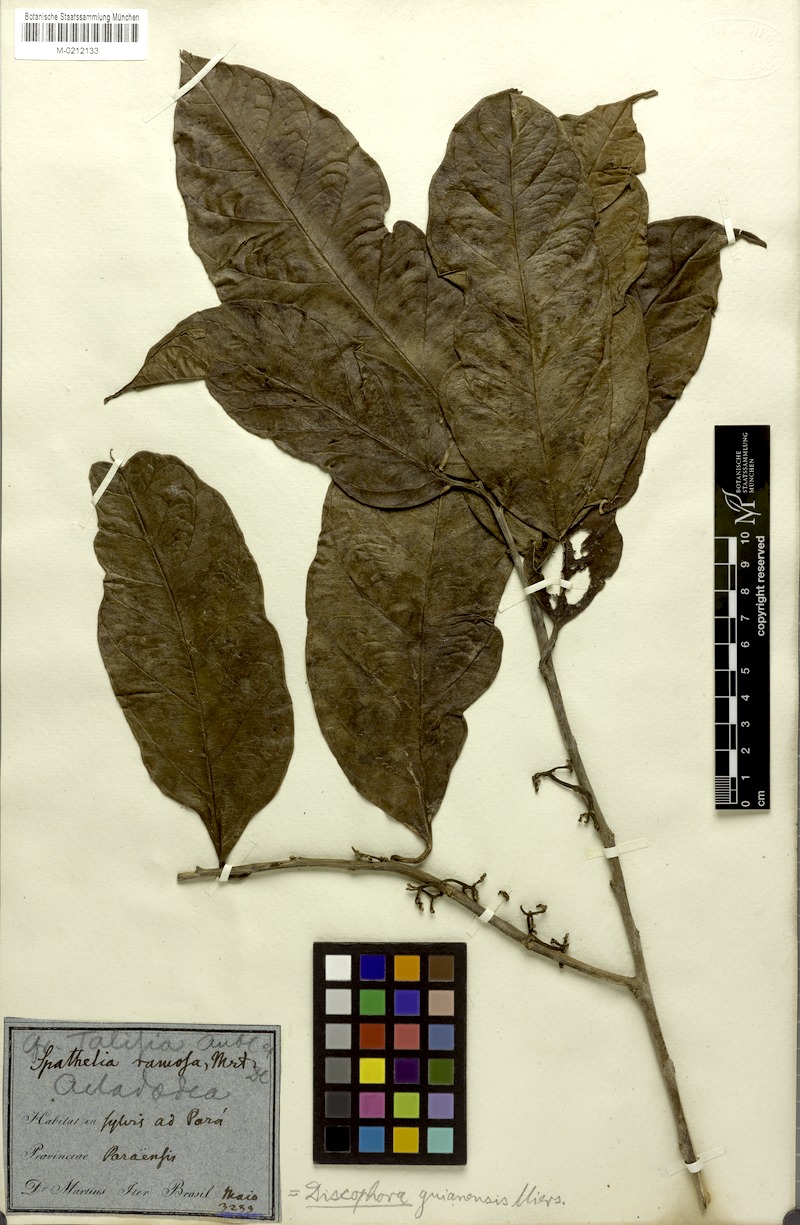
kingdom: Plantae
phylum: Tracheophyta
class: Magnoliopsida
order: Cardiopteridales
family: Stemonuraceae
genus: Discophora
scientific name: Discophora guianensis
